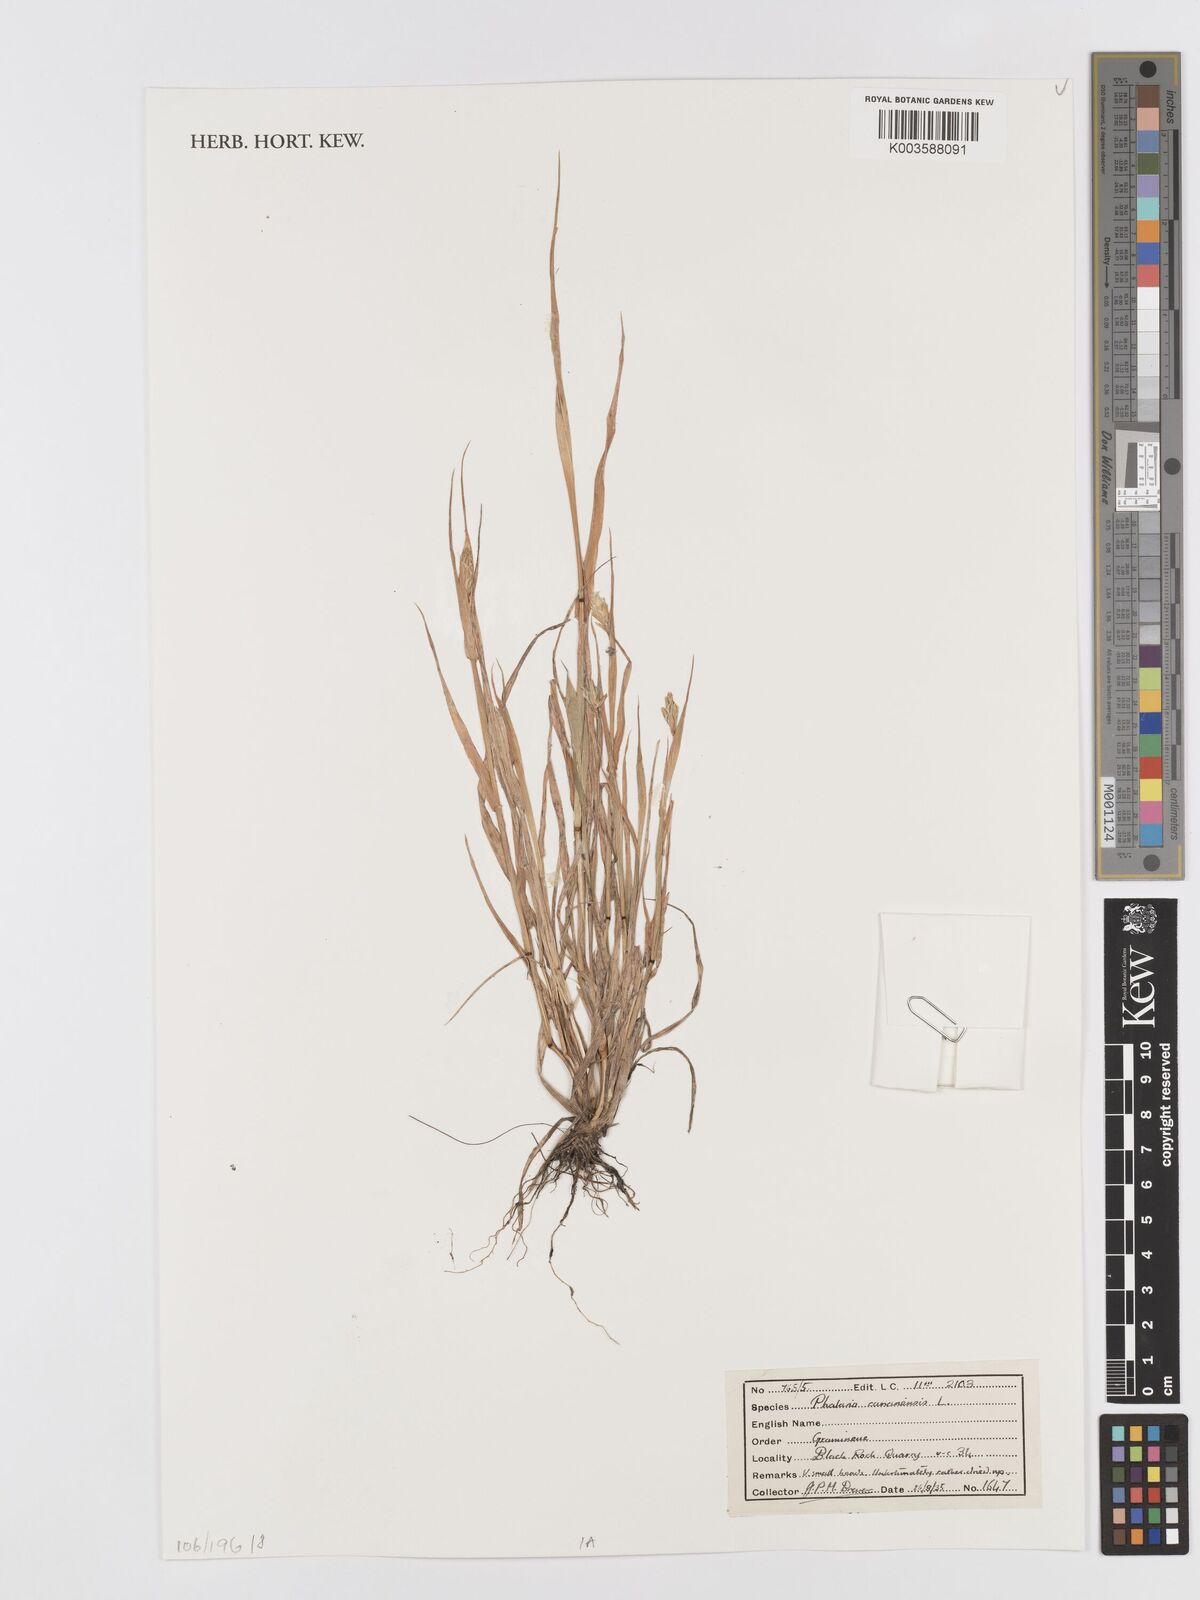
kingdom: Plantae
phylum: Tracheophyta
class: Liliopsida
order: Poales
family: Poaceae
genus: Phalaris
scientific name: Phalaris canariensis
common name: Annual canarygrass
